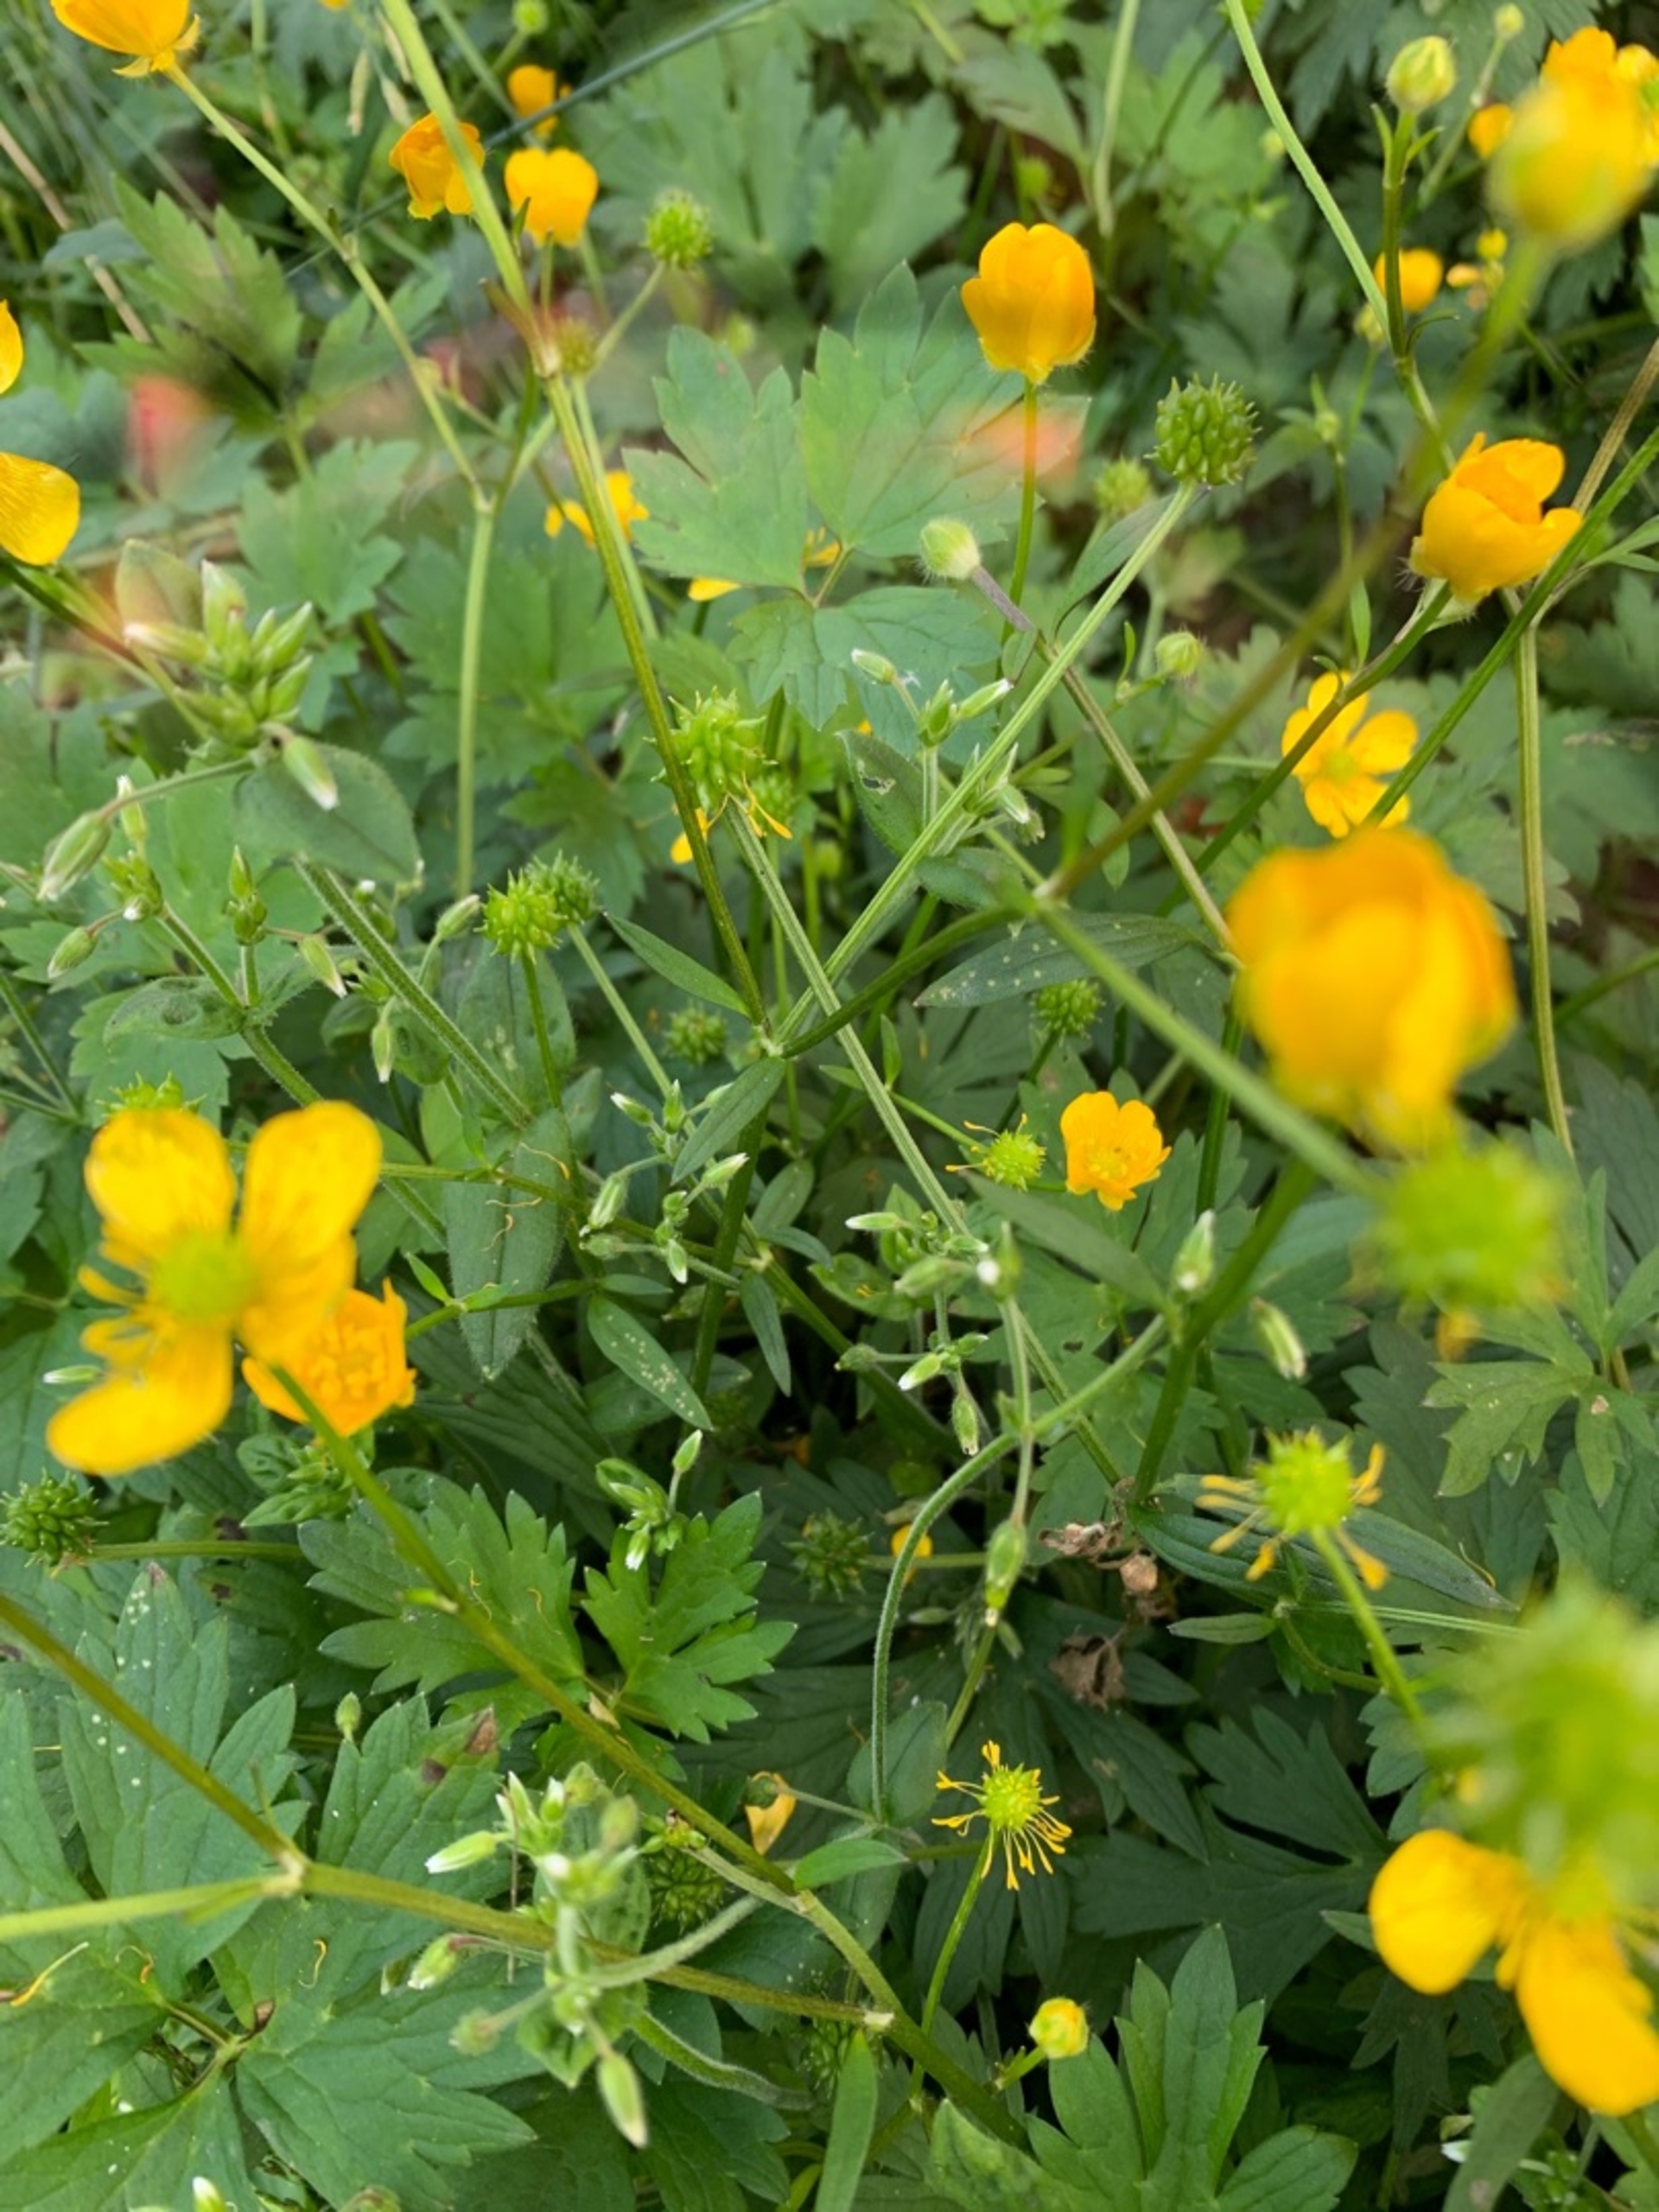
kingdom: Plantae
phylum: Tracheophyta
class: Magnoliopsida
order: Ranunculales
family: Ranunculaceae
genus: Ranunculus
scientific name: Ranunculus repens
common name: Lav ranunkel
